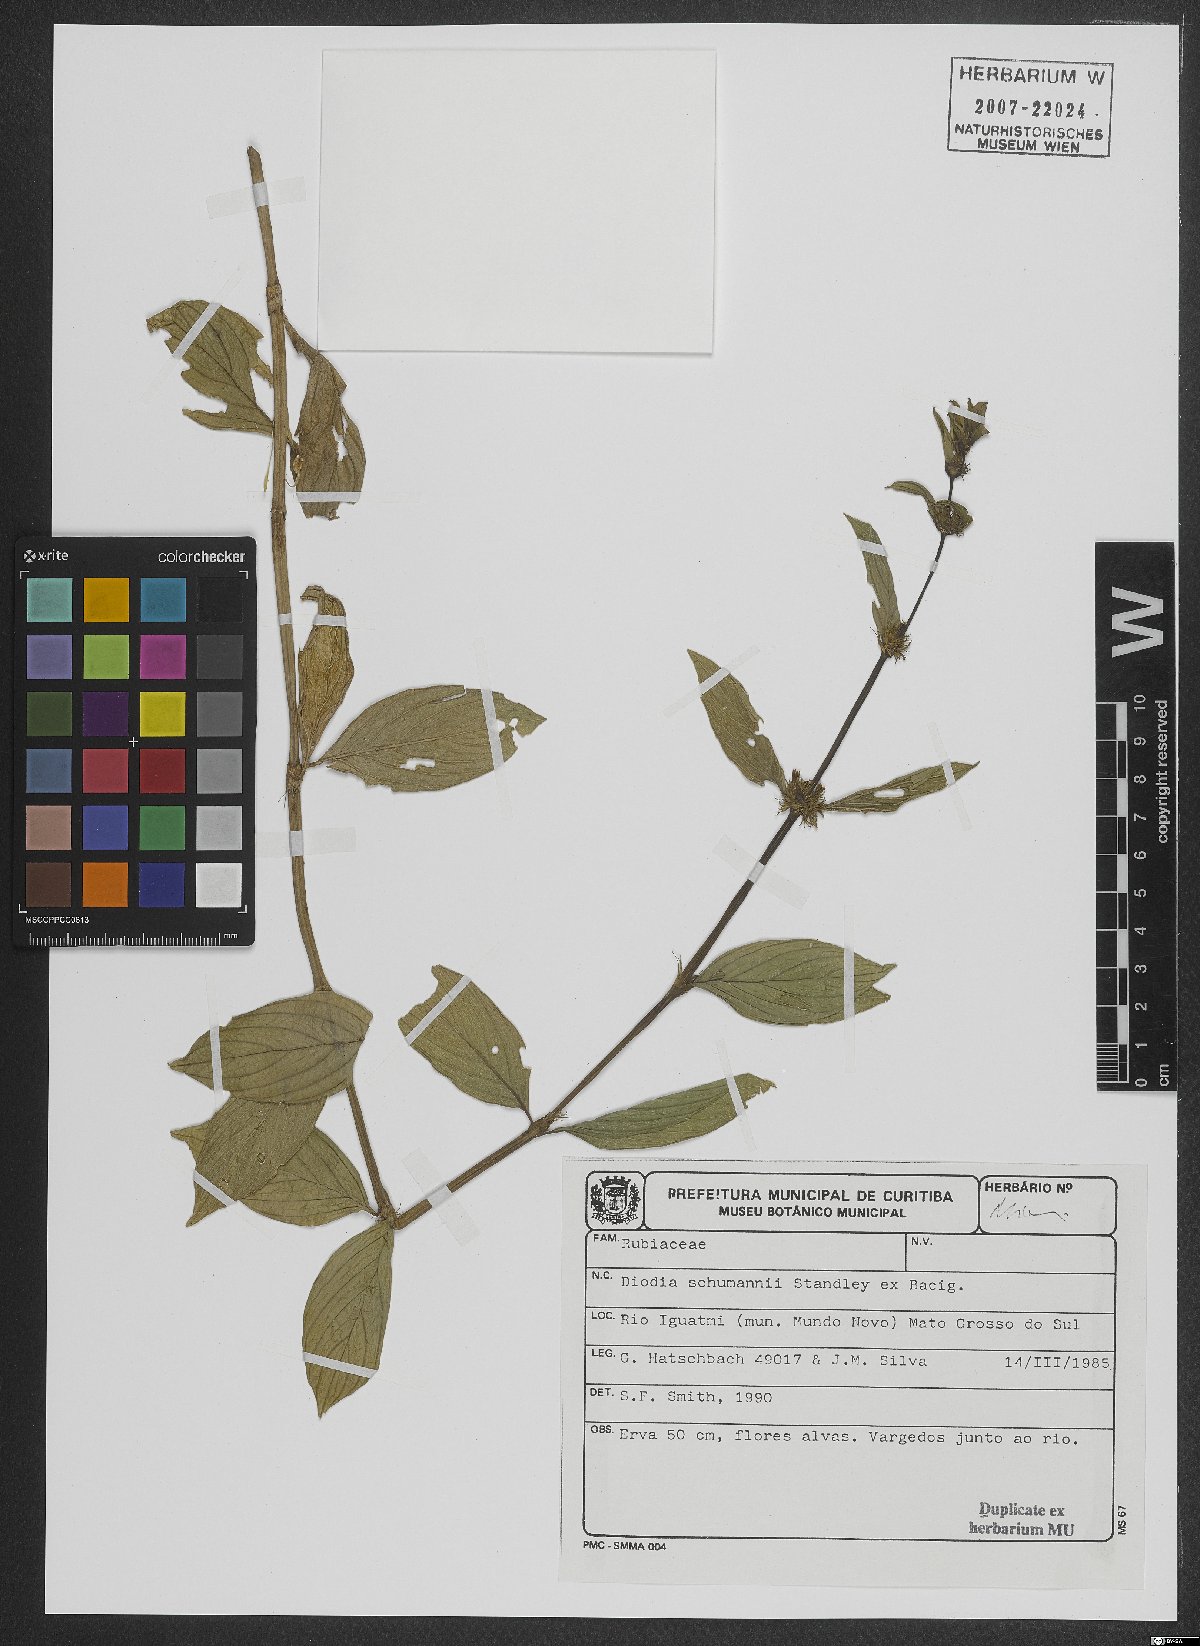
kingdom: Plantae
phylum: Tracheophyta
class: Magnoliopsida
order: Gentianales
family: Rubiaceae
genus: Spermacoce
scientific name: Spermacoce schumannii
